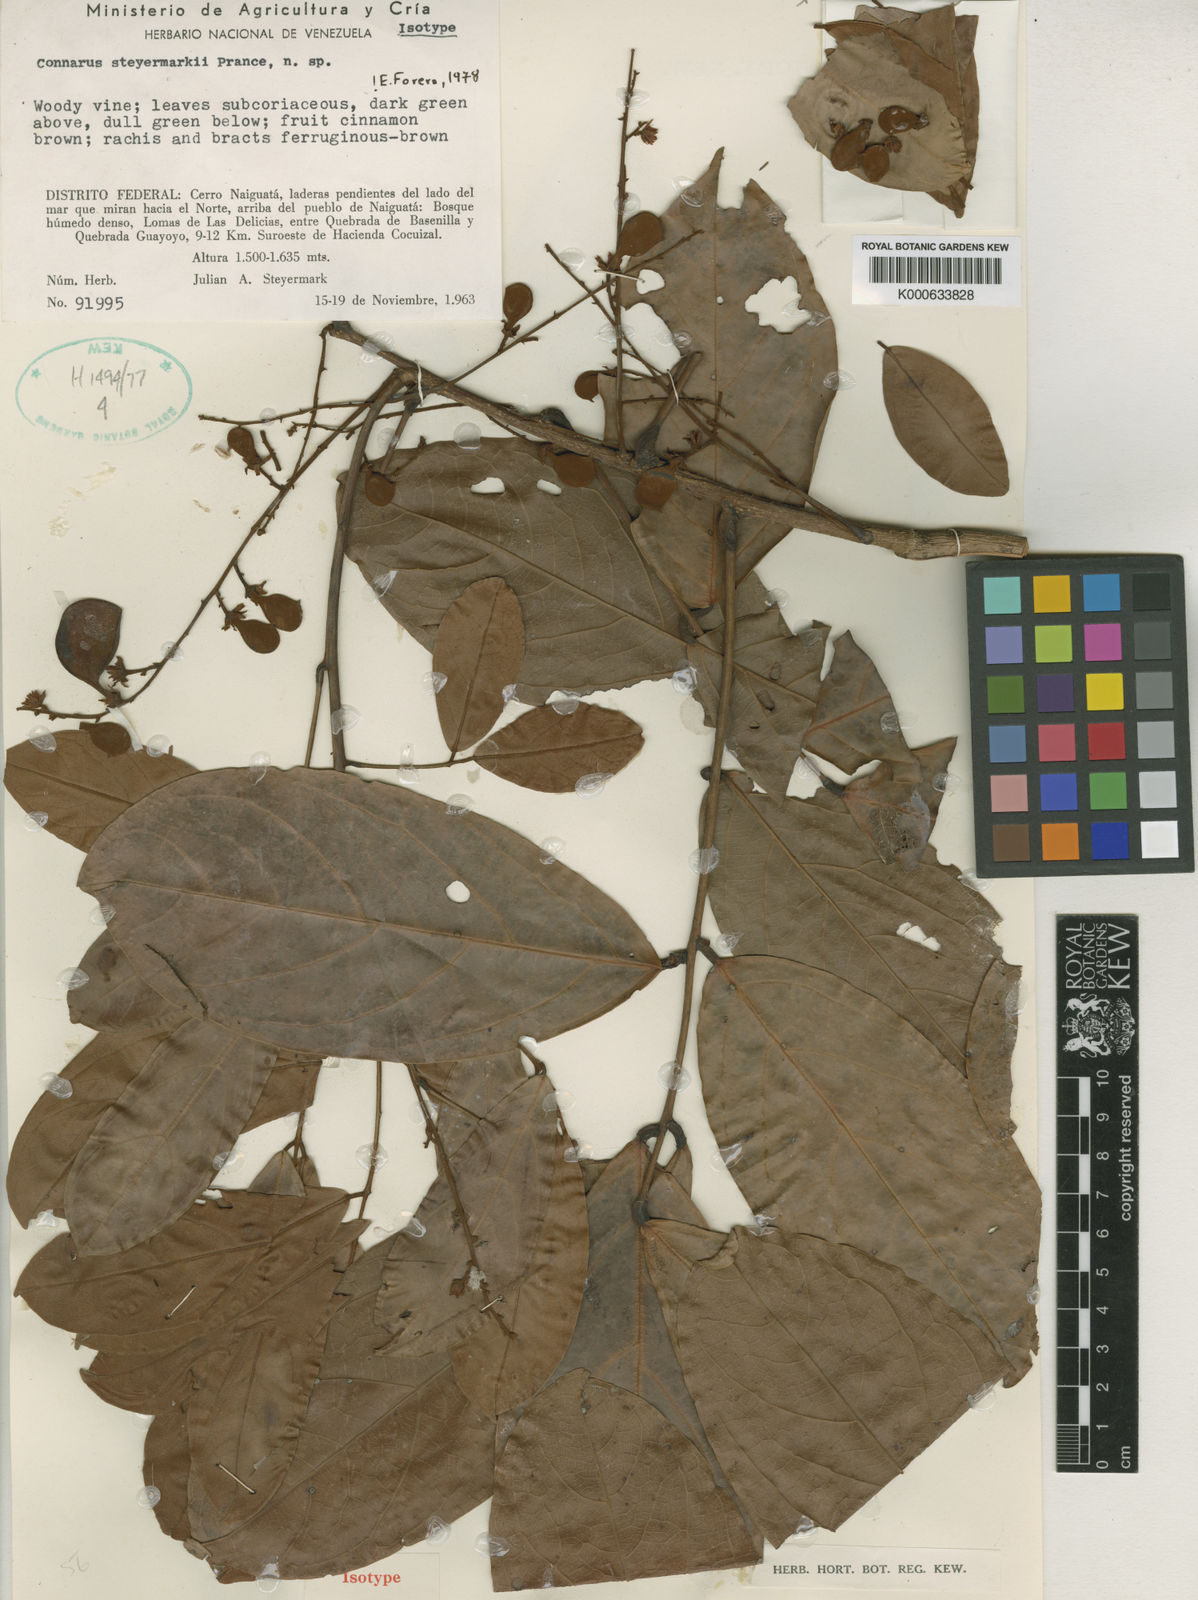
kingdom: Plantae
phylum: Tracheophyta
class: Magnoliopsida
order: Oxalidales
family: Connaraceae
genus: Connarus
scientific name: Connarus steyermarkii
